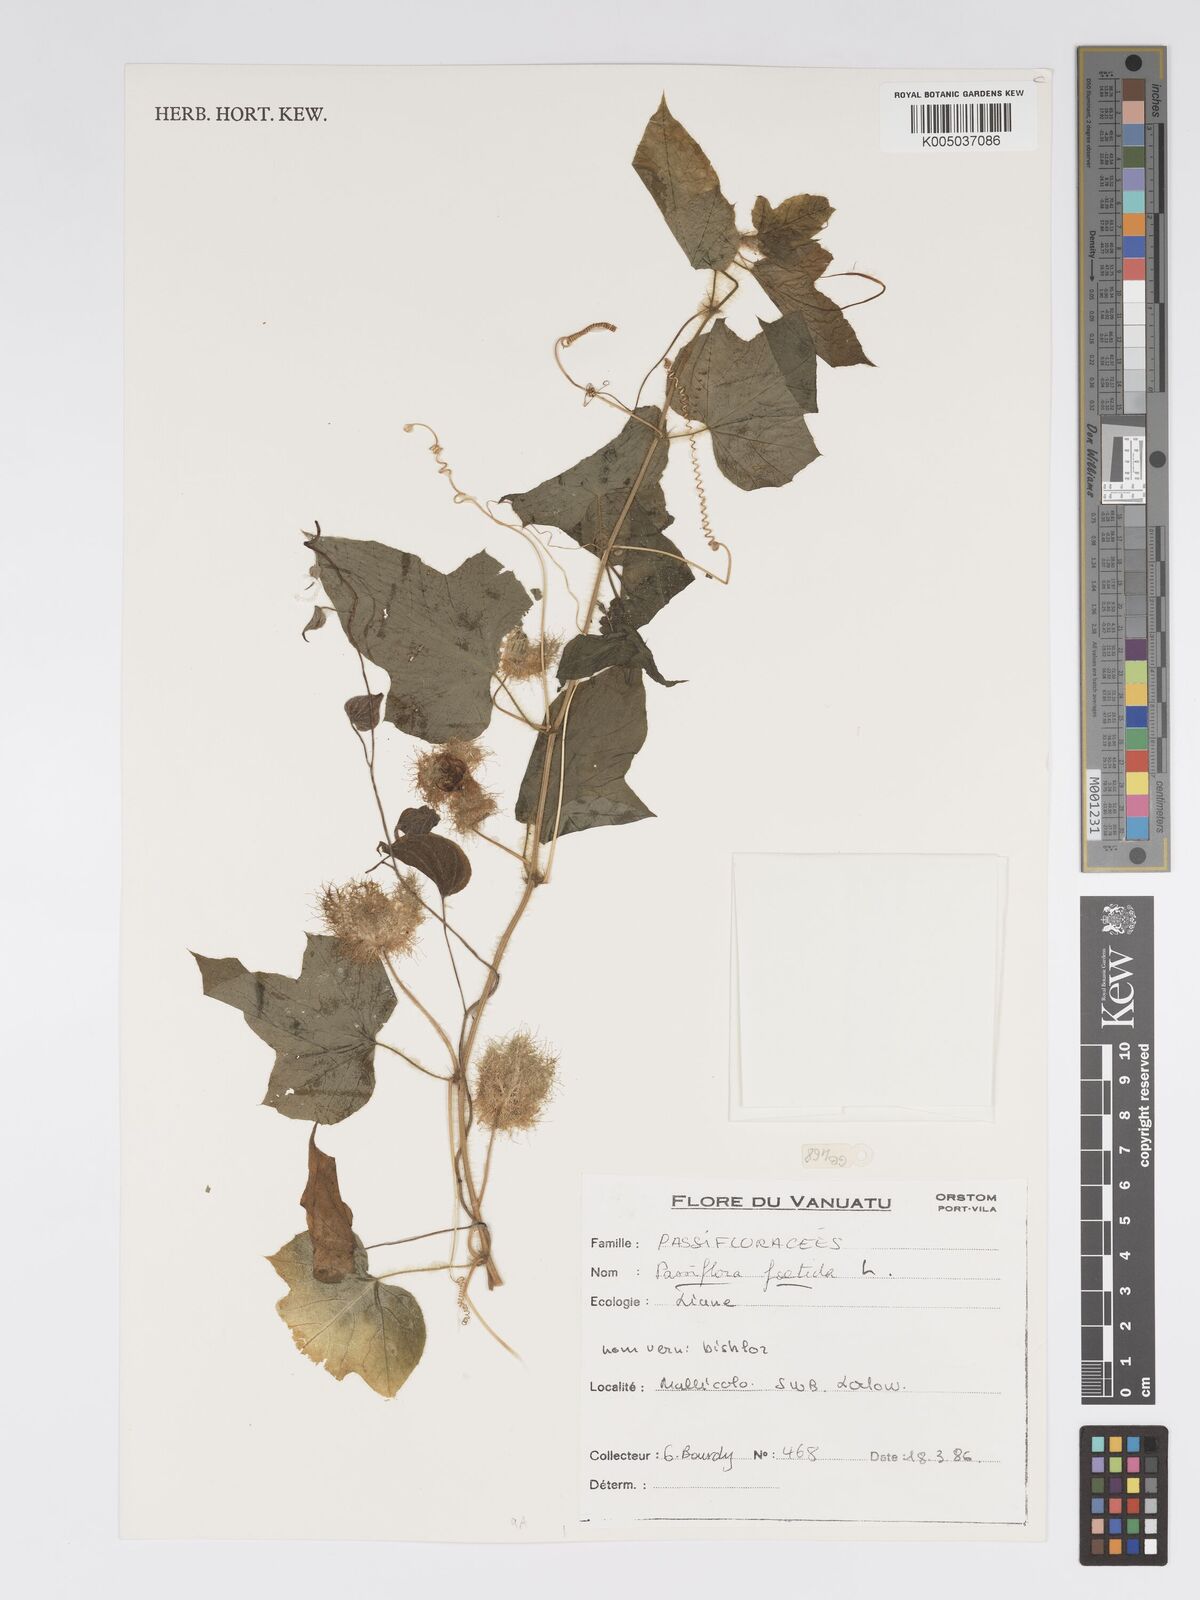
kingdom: Plantae
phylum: Tracheophyta
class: Magnoliopsida
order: Malpighiales
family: Passifloraceae
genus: Passiflora
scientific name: Passiflora foetida
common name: Fetid passionflower
